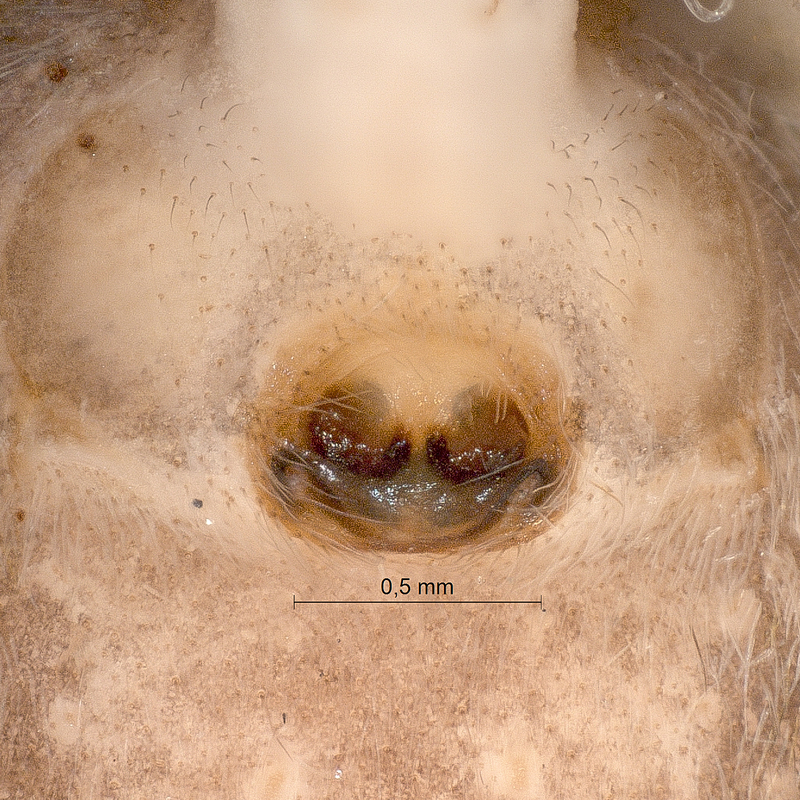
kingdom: Animalia
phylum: Arthropoda
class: Arachnida
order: Araneae
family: Salticidae
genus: Evarcha
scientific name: Evarcha falcata
